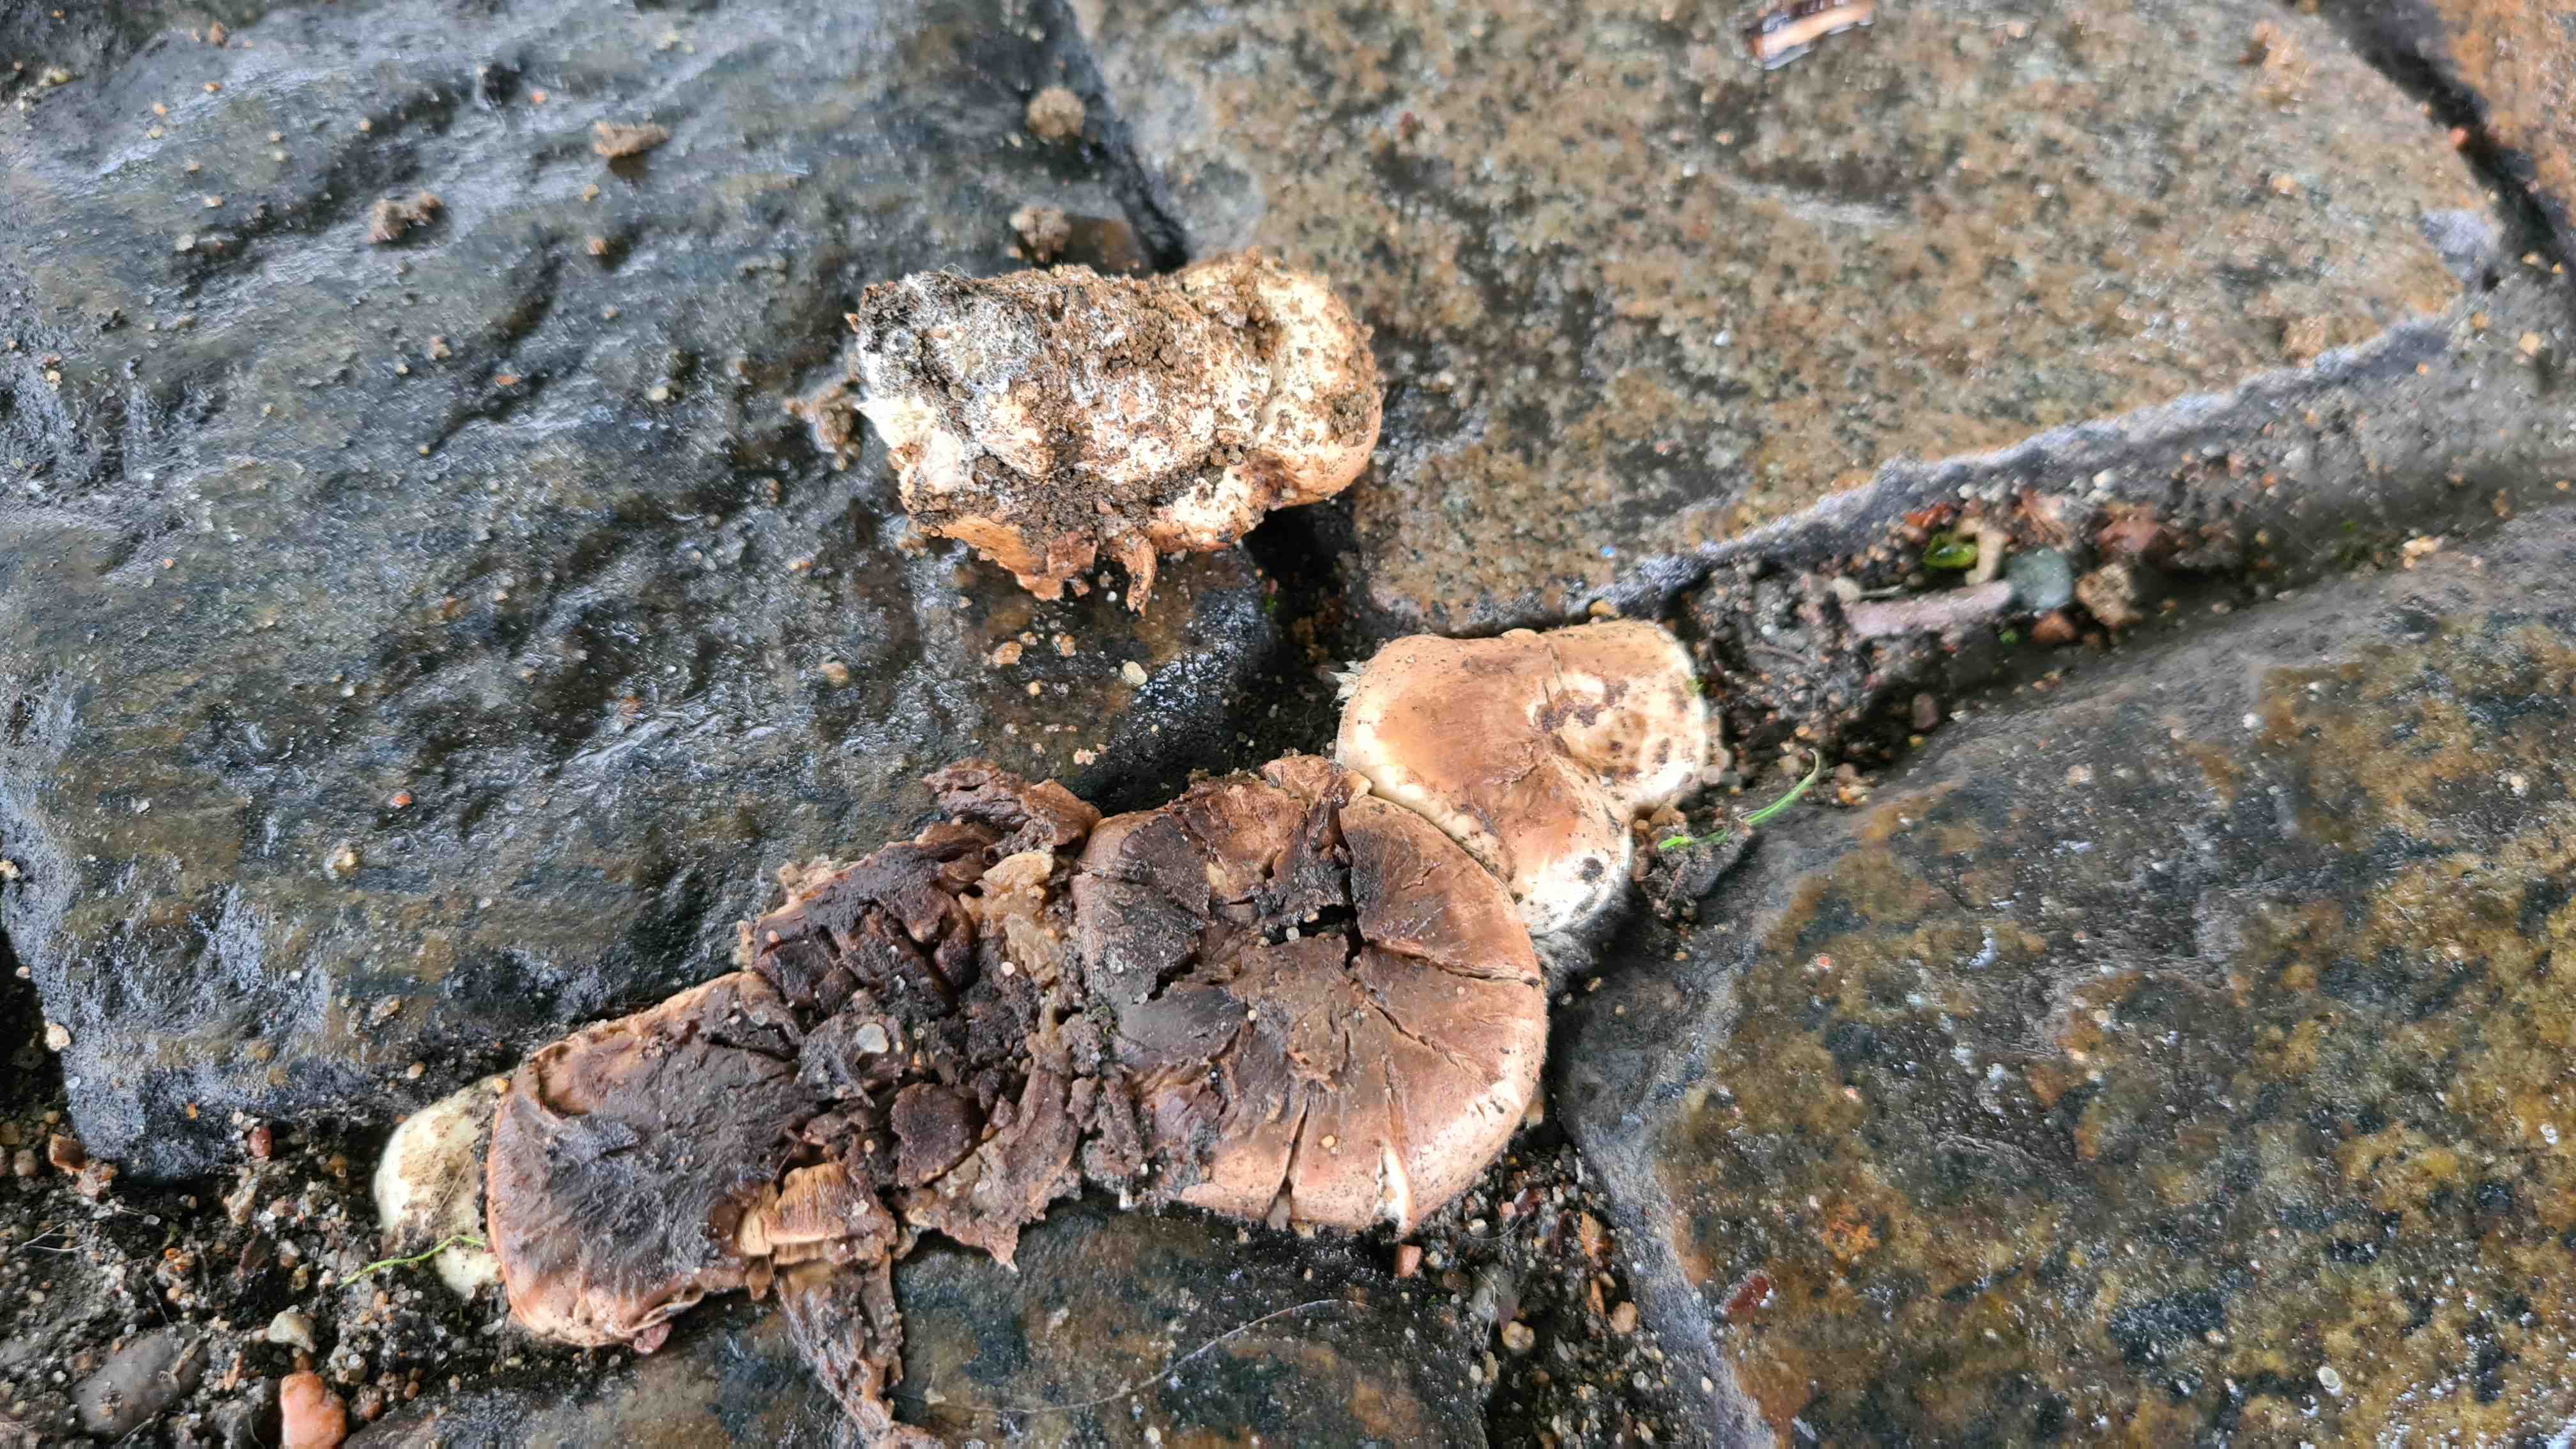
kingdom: Fungi
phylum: Basidiomycota
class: Agaricomycetes
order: Agaricales
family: Agaricaceae
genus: Agaricus
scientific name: Agaricus bitorquis
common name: vej-champignon
